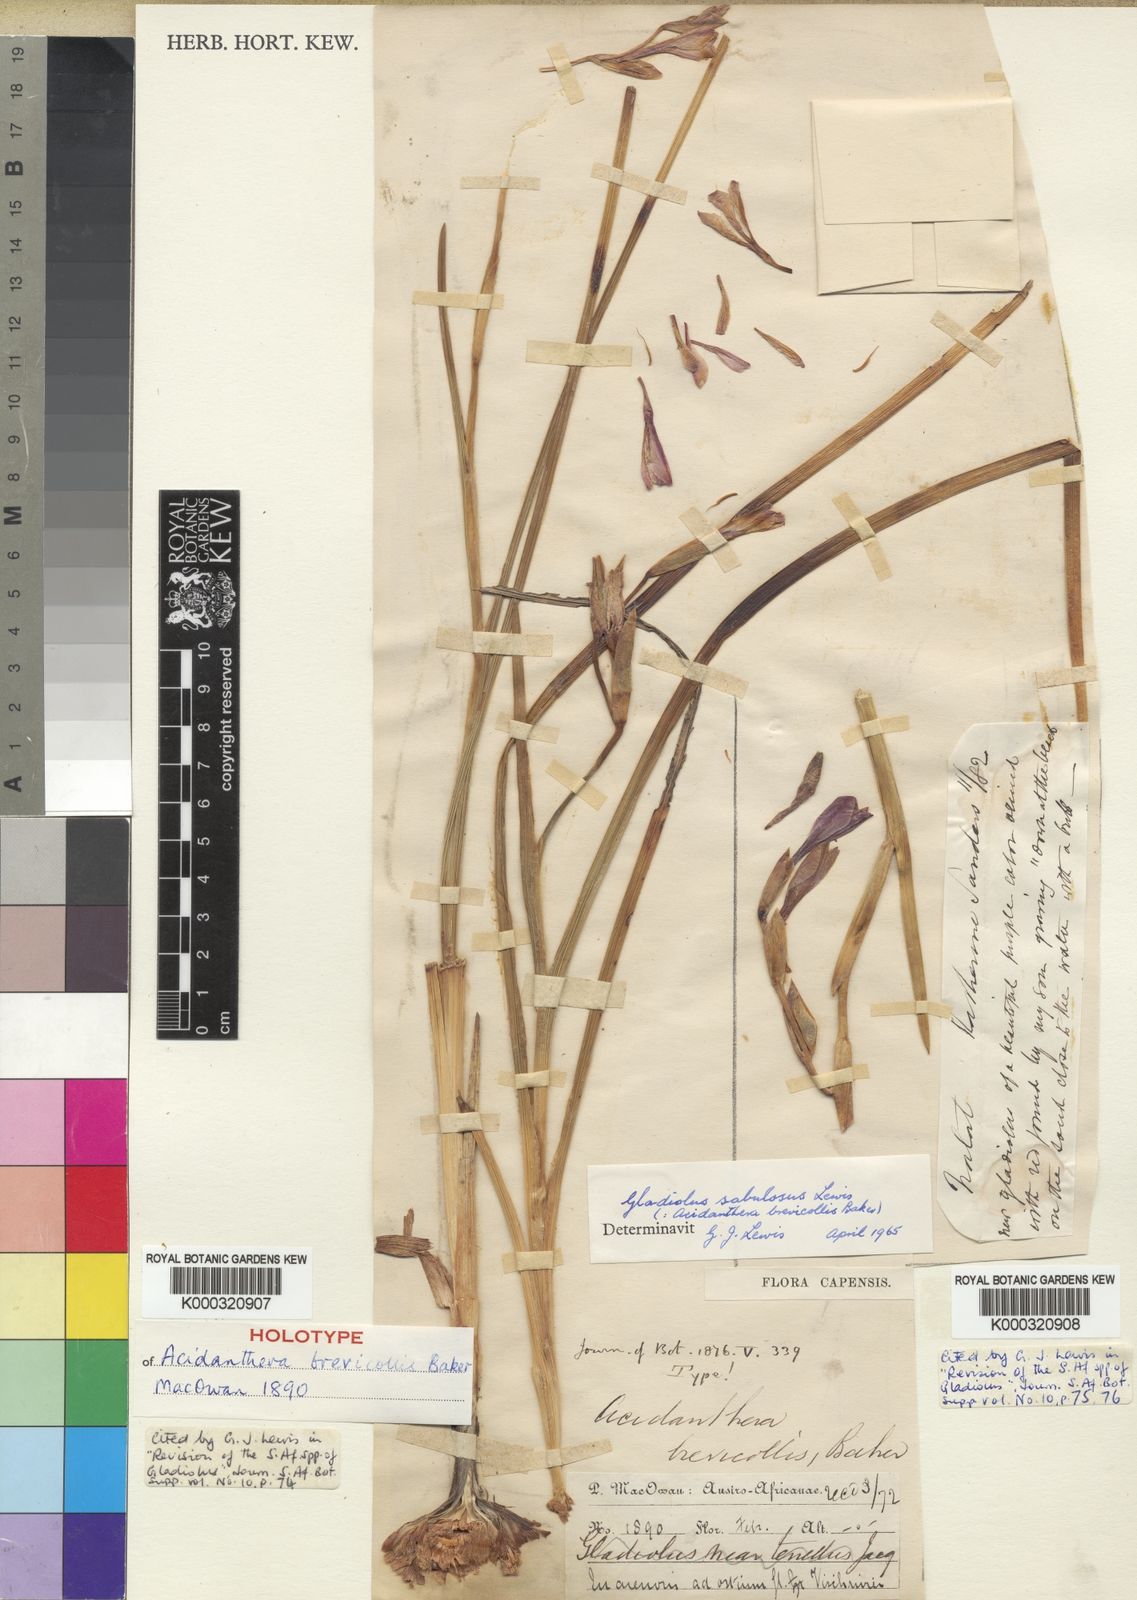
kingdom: Plantae
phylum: Tracheophyta
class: Liliopsida
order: Asparagales
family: Iridaceae
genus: Gladiolus
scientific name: Gladiolus gueinzii
